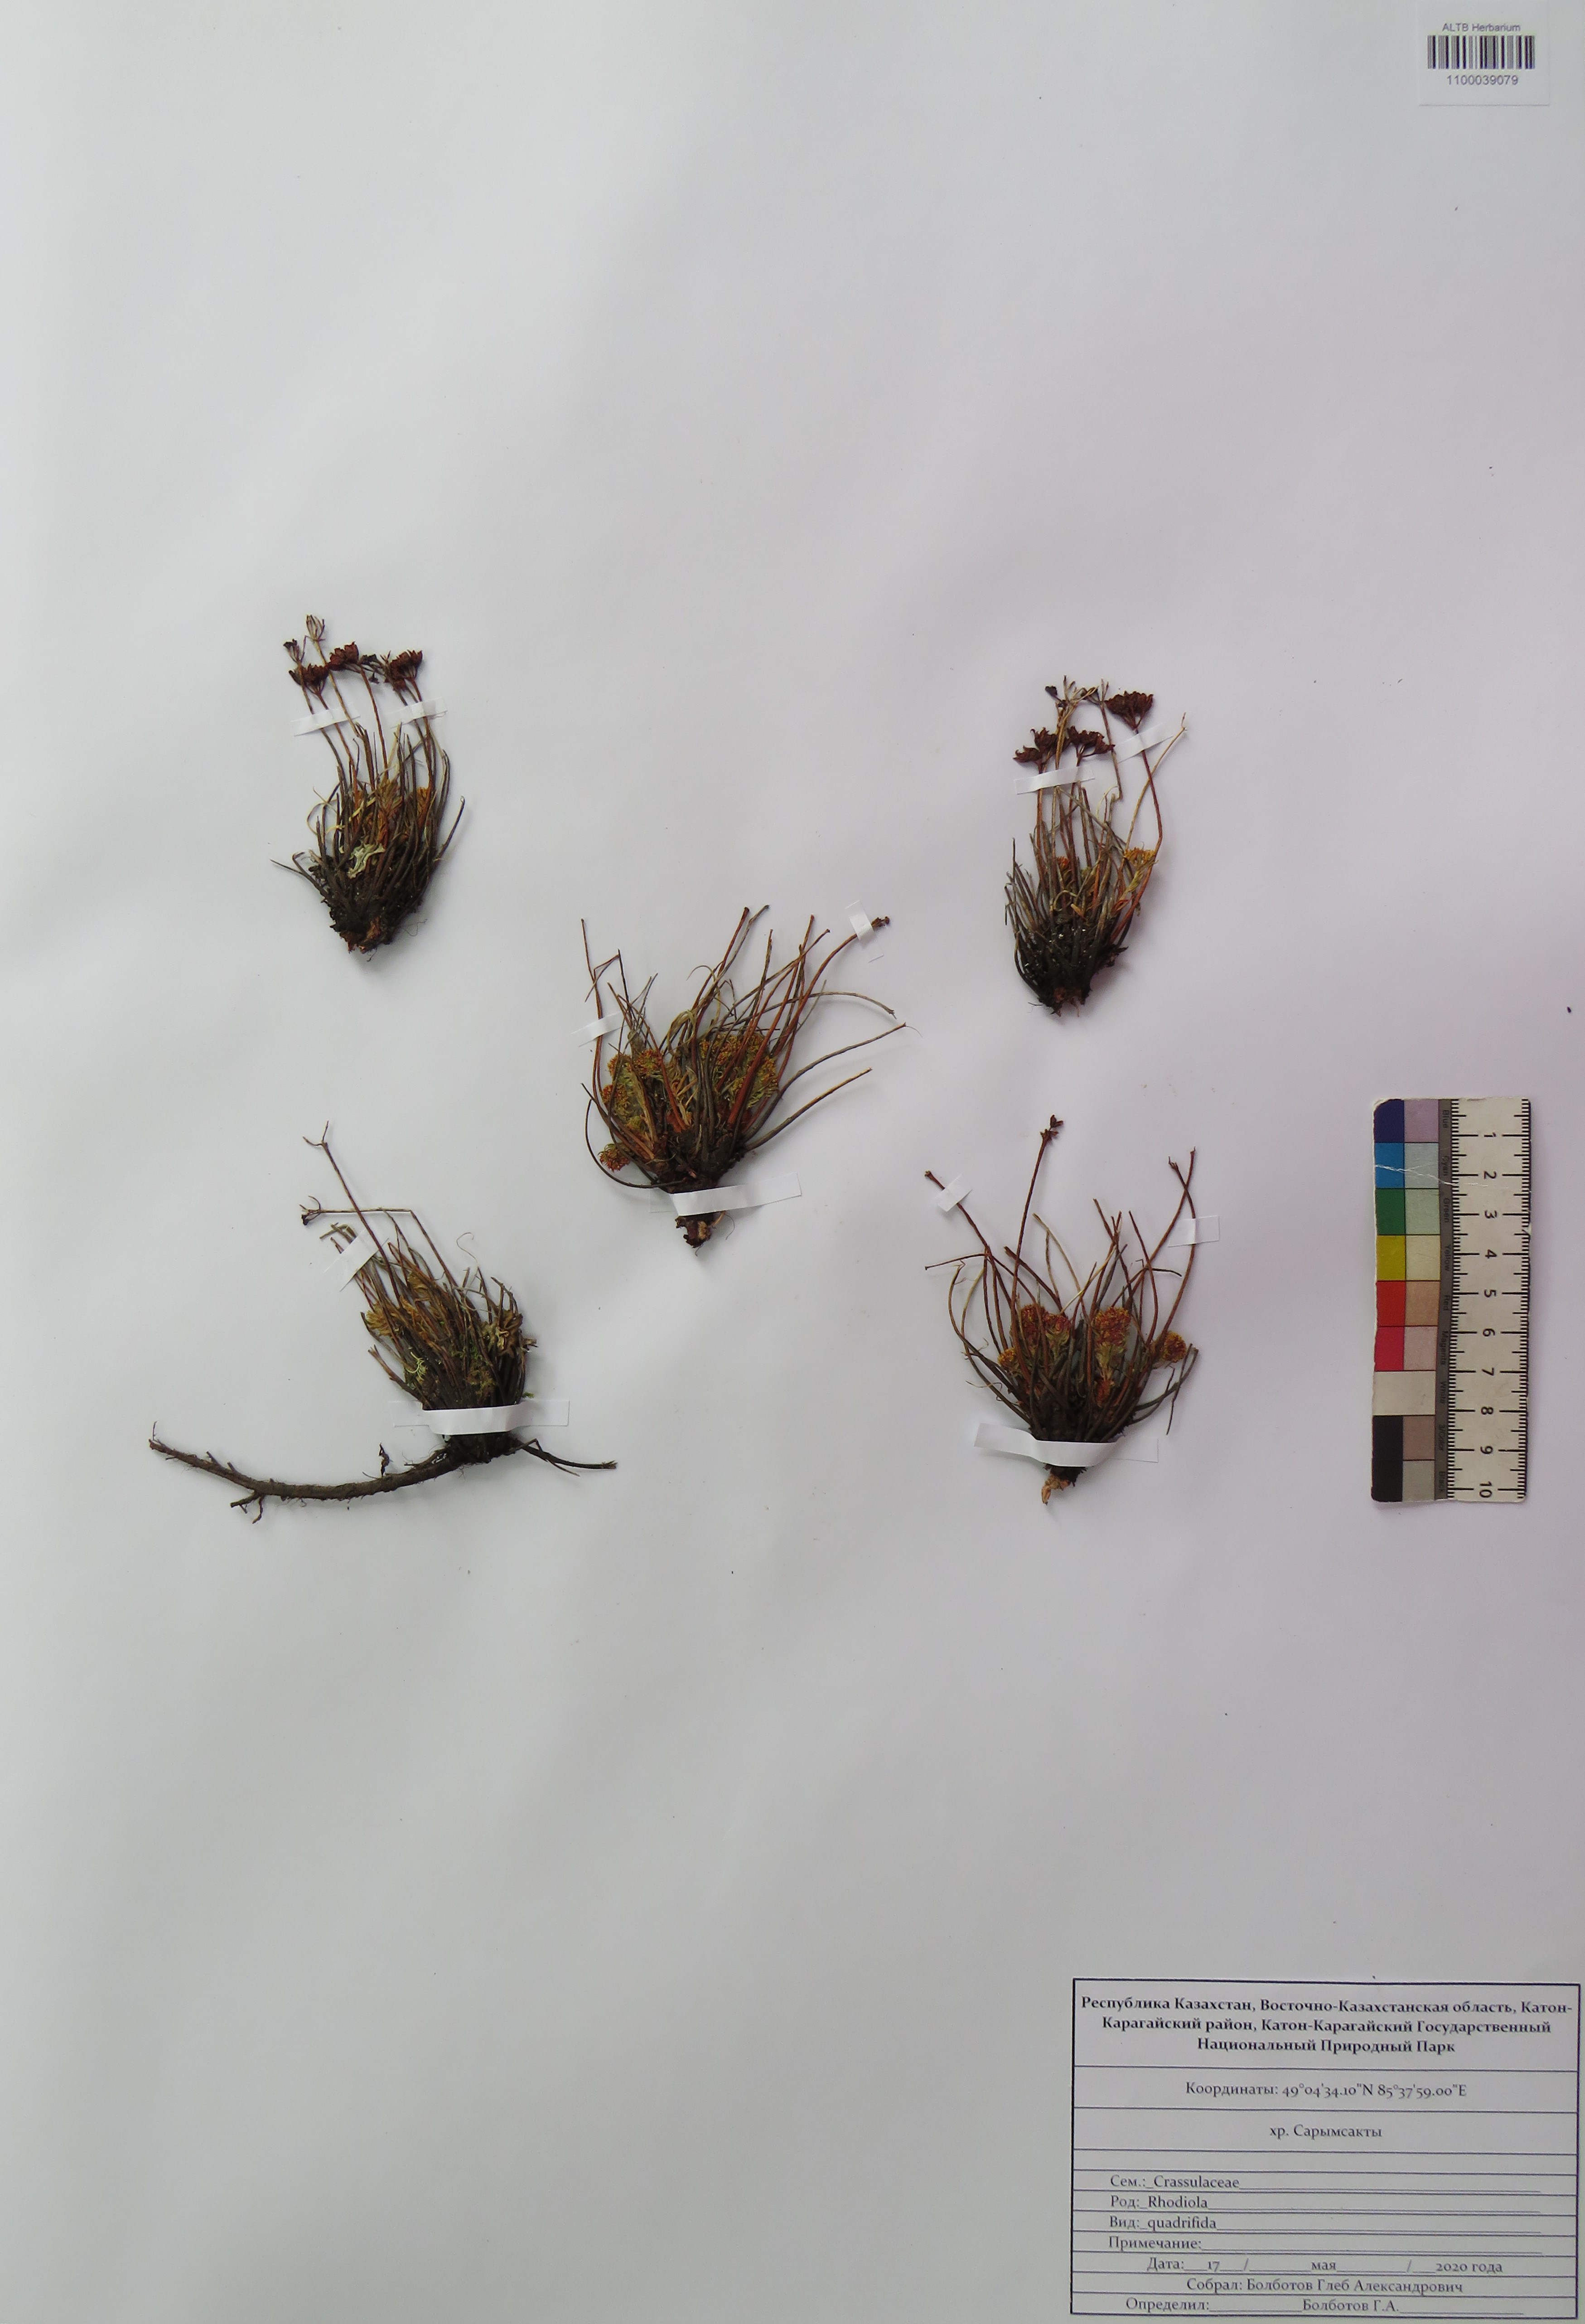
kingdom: Plantae
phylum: Tracheophyta
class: Magnoliopsida
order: Saxifragales
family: Crassulaceae
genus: Rhodiola
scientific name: Rhodiola quadrifida
